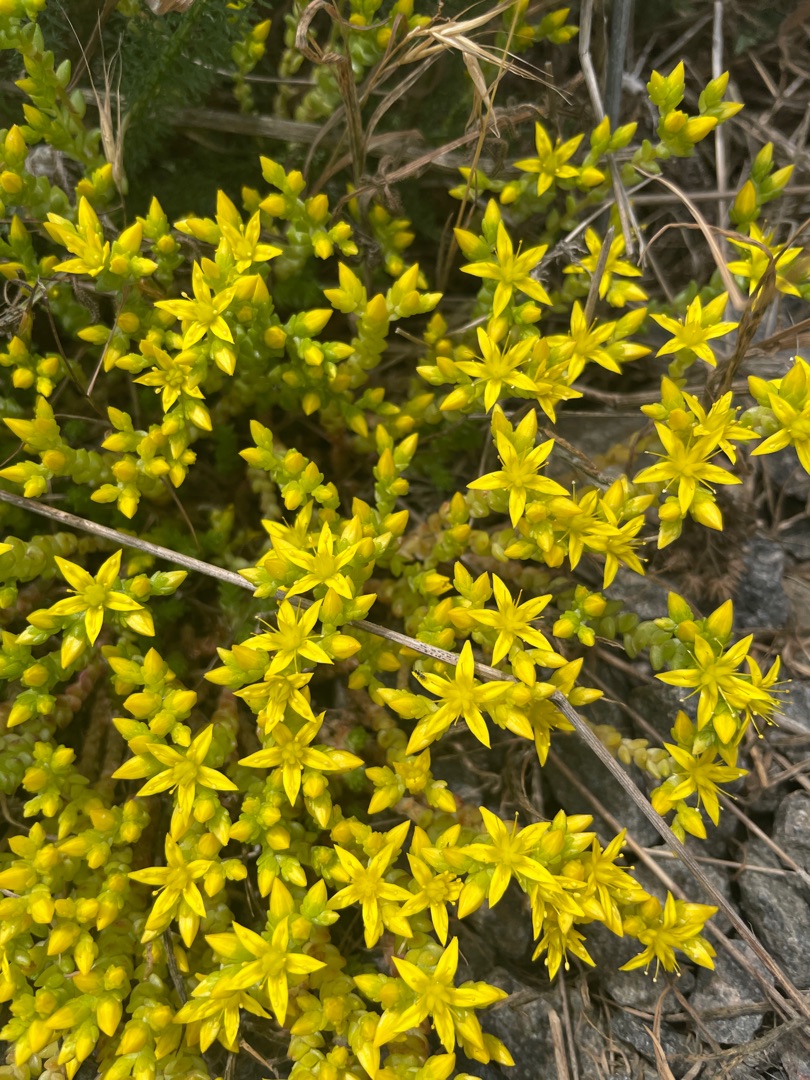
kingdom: Plantae
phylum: Tracheophyta
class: Magnoliopsida
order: Saxifragales
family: Crassulaceae
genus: Sedum
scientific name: Sedum acre
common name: Bidende stenurt
